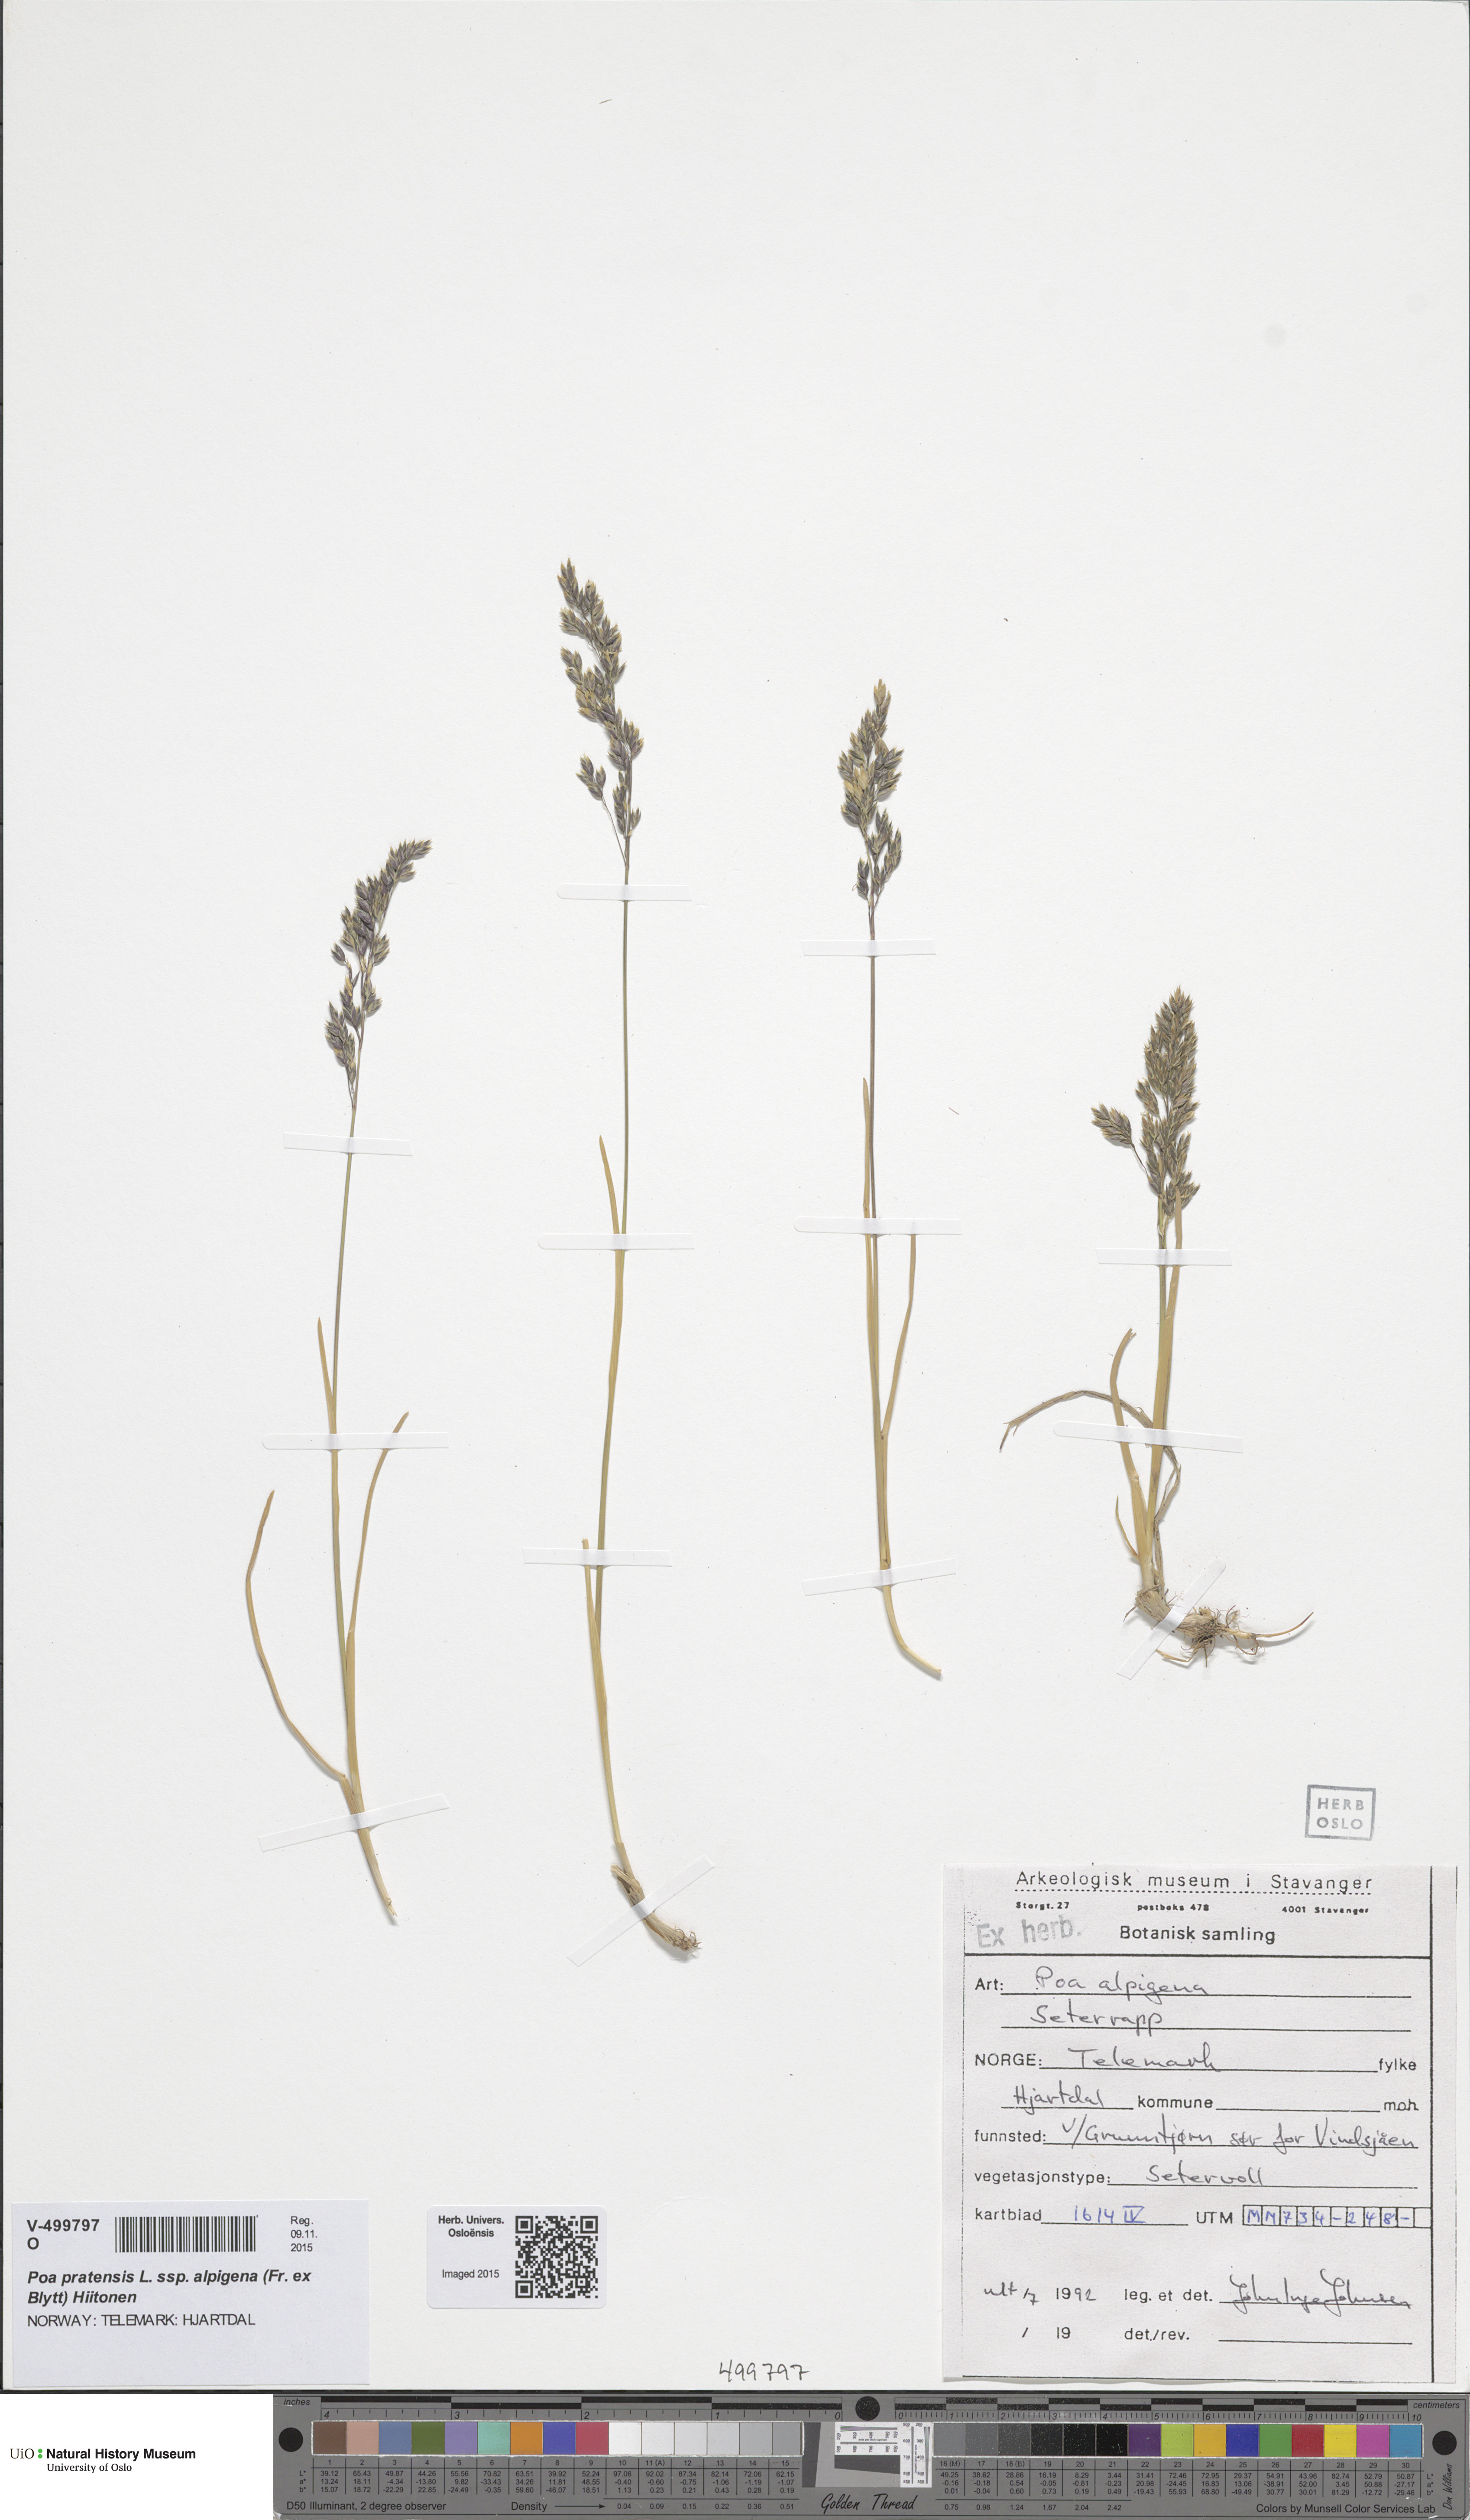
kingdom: Plantae
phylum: Tracheophyta
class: Liliopsida
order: Poales
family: Poaceae
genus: Poa
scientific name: Poa alpigena
